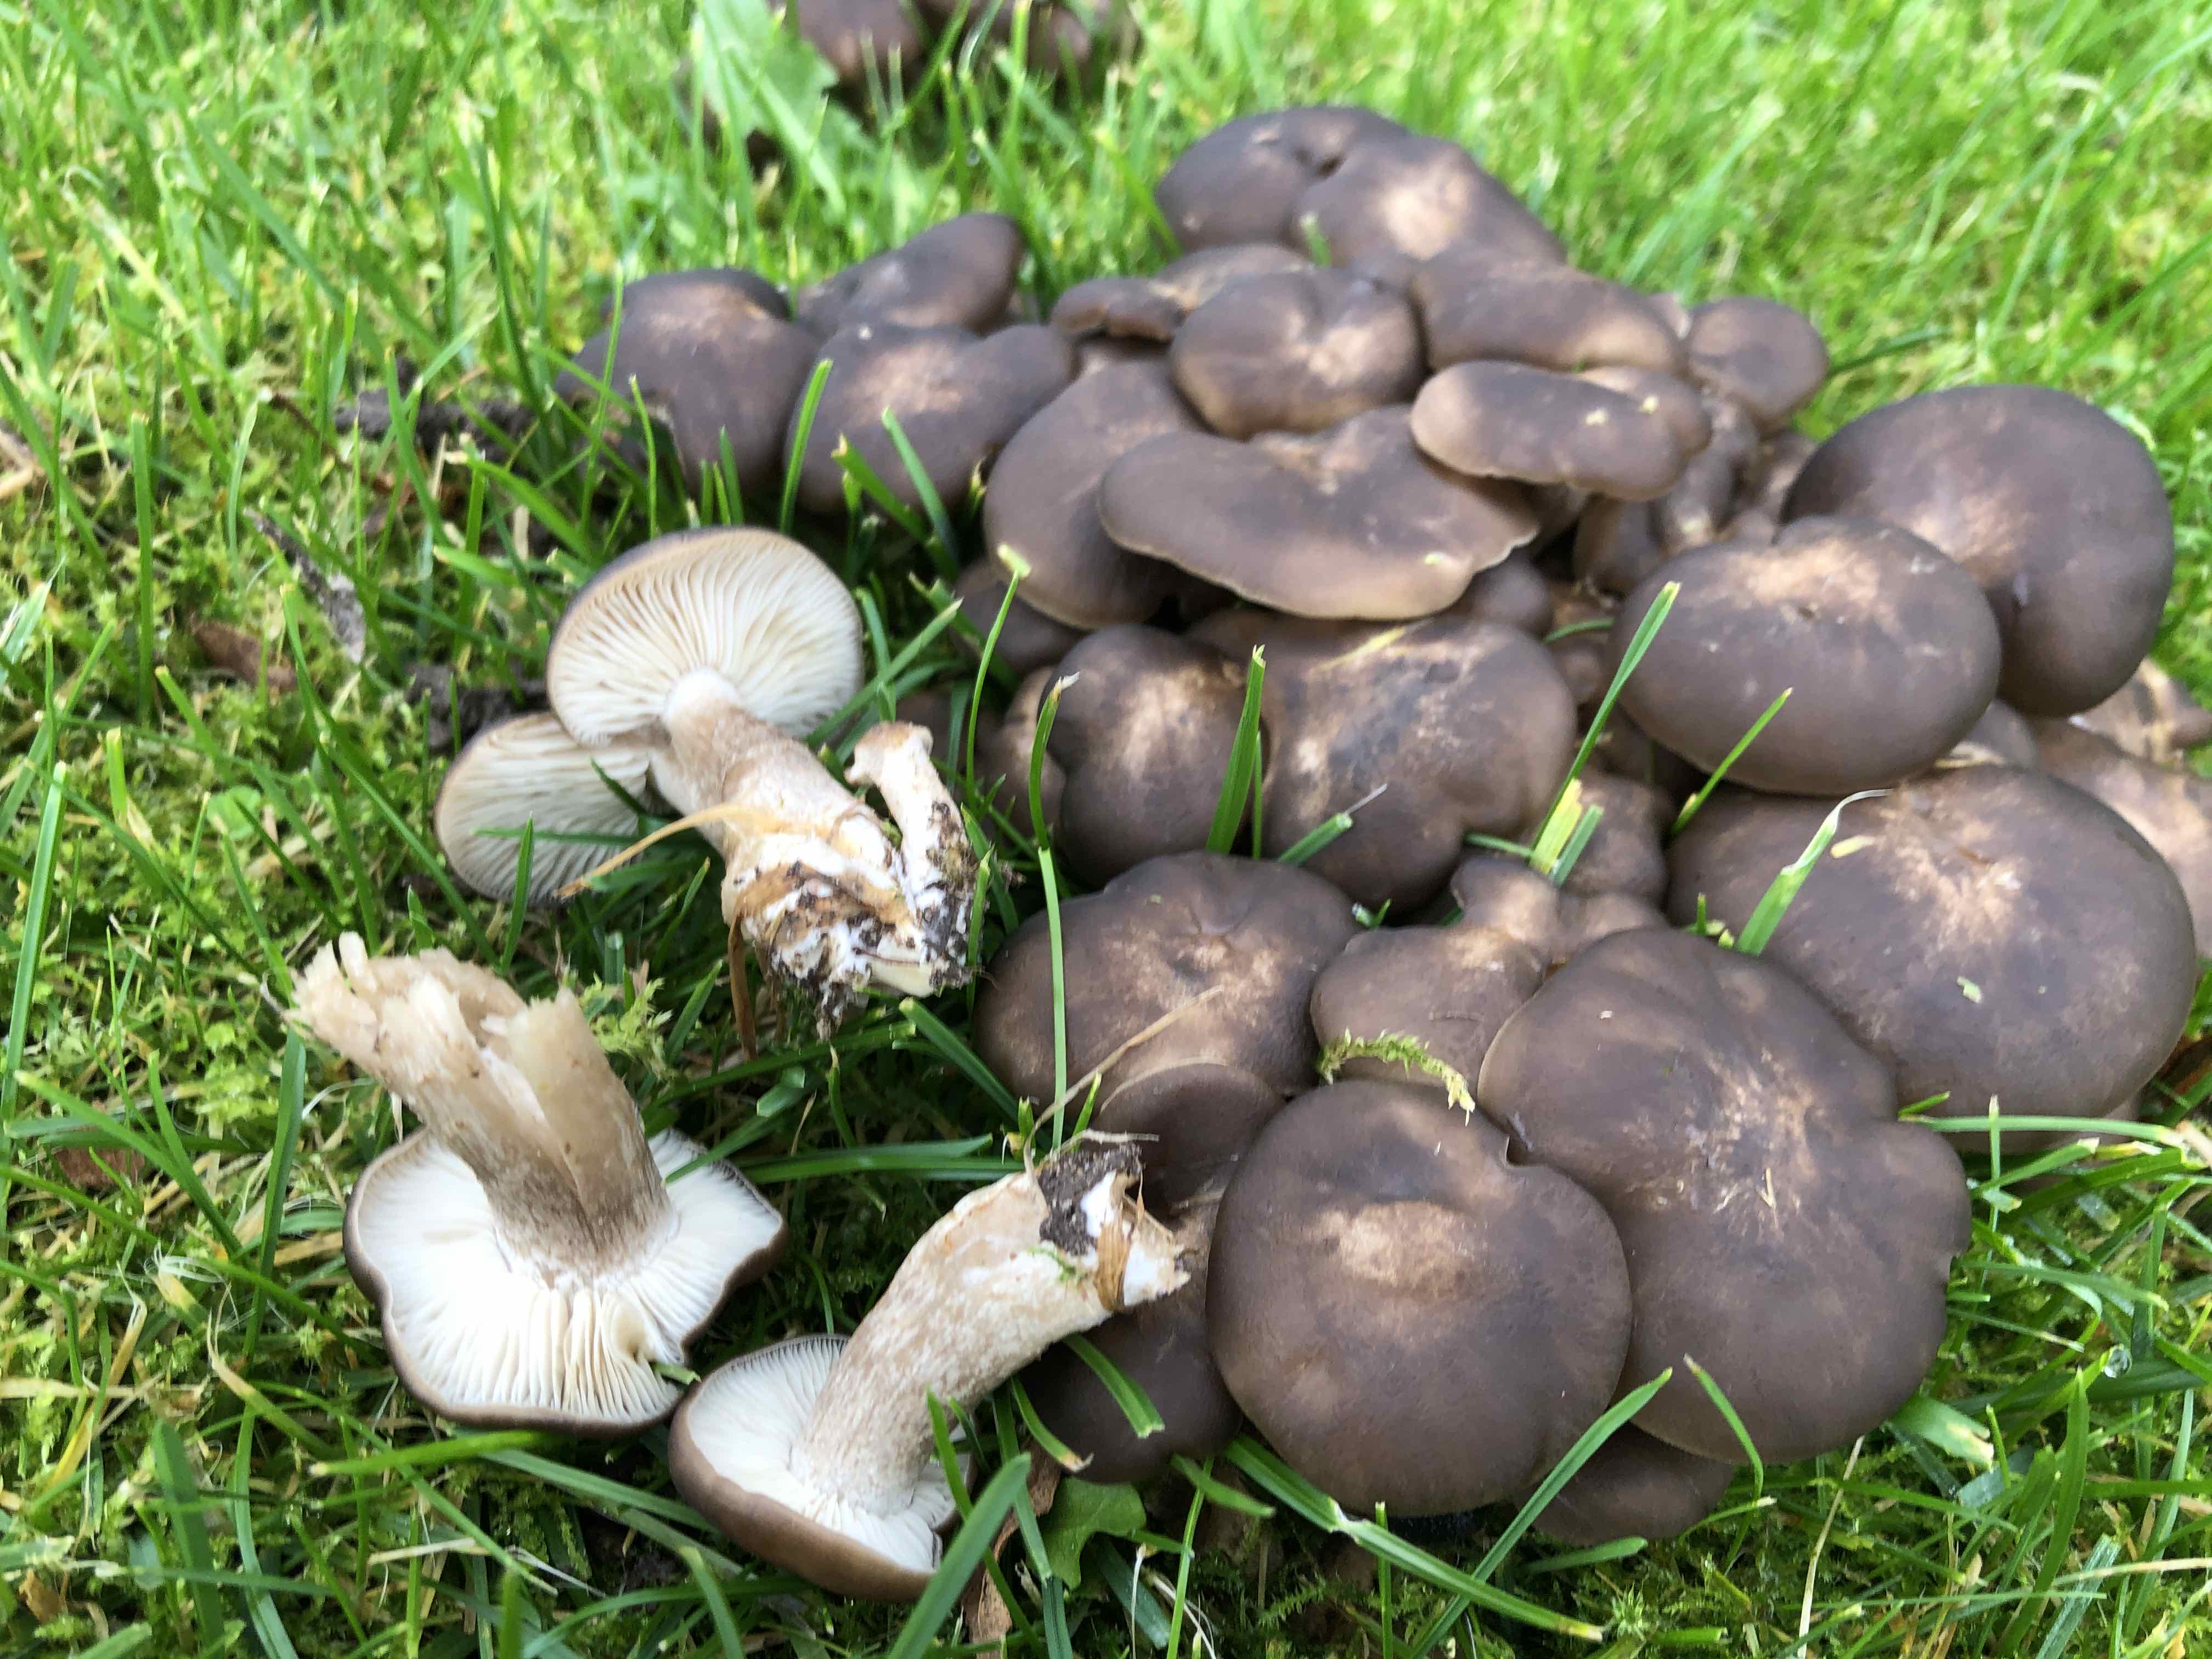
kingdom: Fungi
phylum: Basidiomycota
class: Agaricomycetes
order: Agaricales
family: Lyophyllaceae
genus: Lyophyllum
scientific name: Lyophyllum
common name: gråblad
